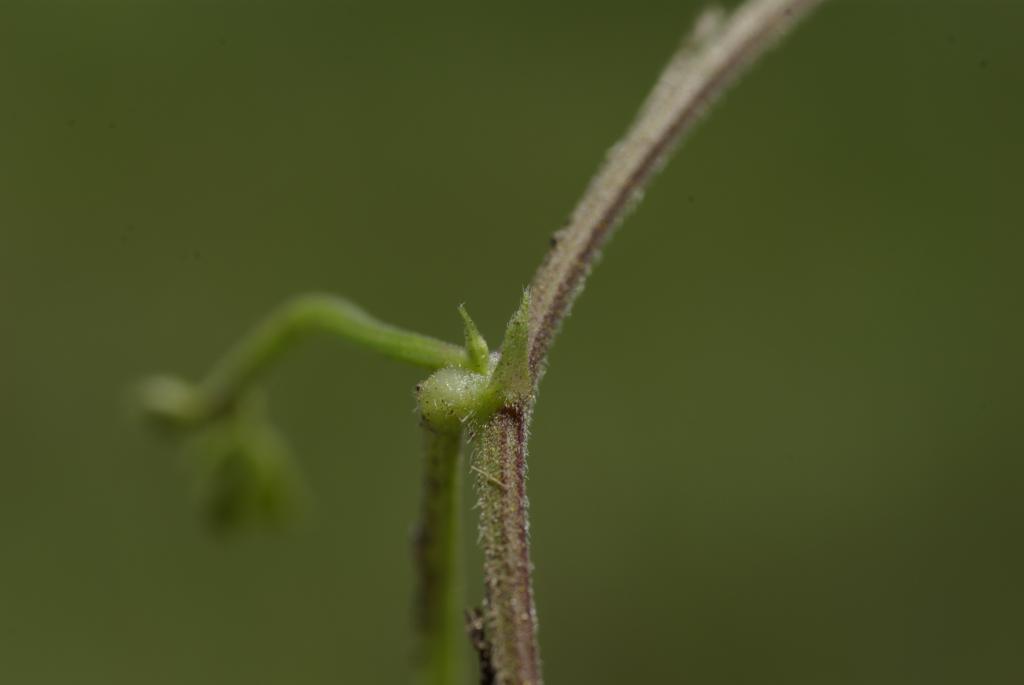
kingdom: Plantae
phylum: Tracheophyta
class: Magnoliopsida
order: Fabales
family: Fabaceae
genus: Rhynchosia
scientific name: Rhynchosia minima
